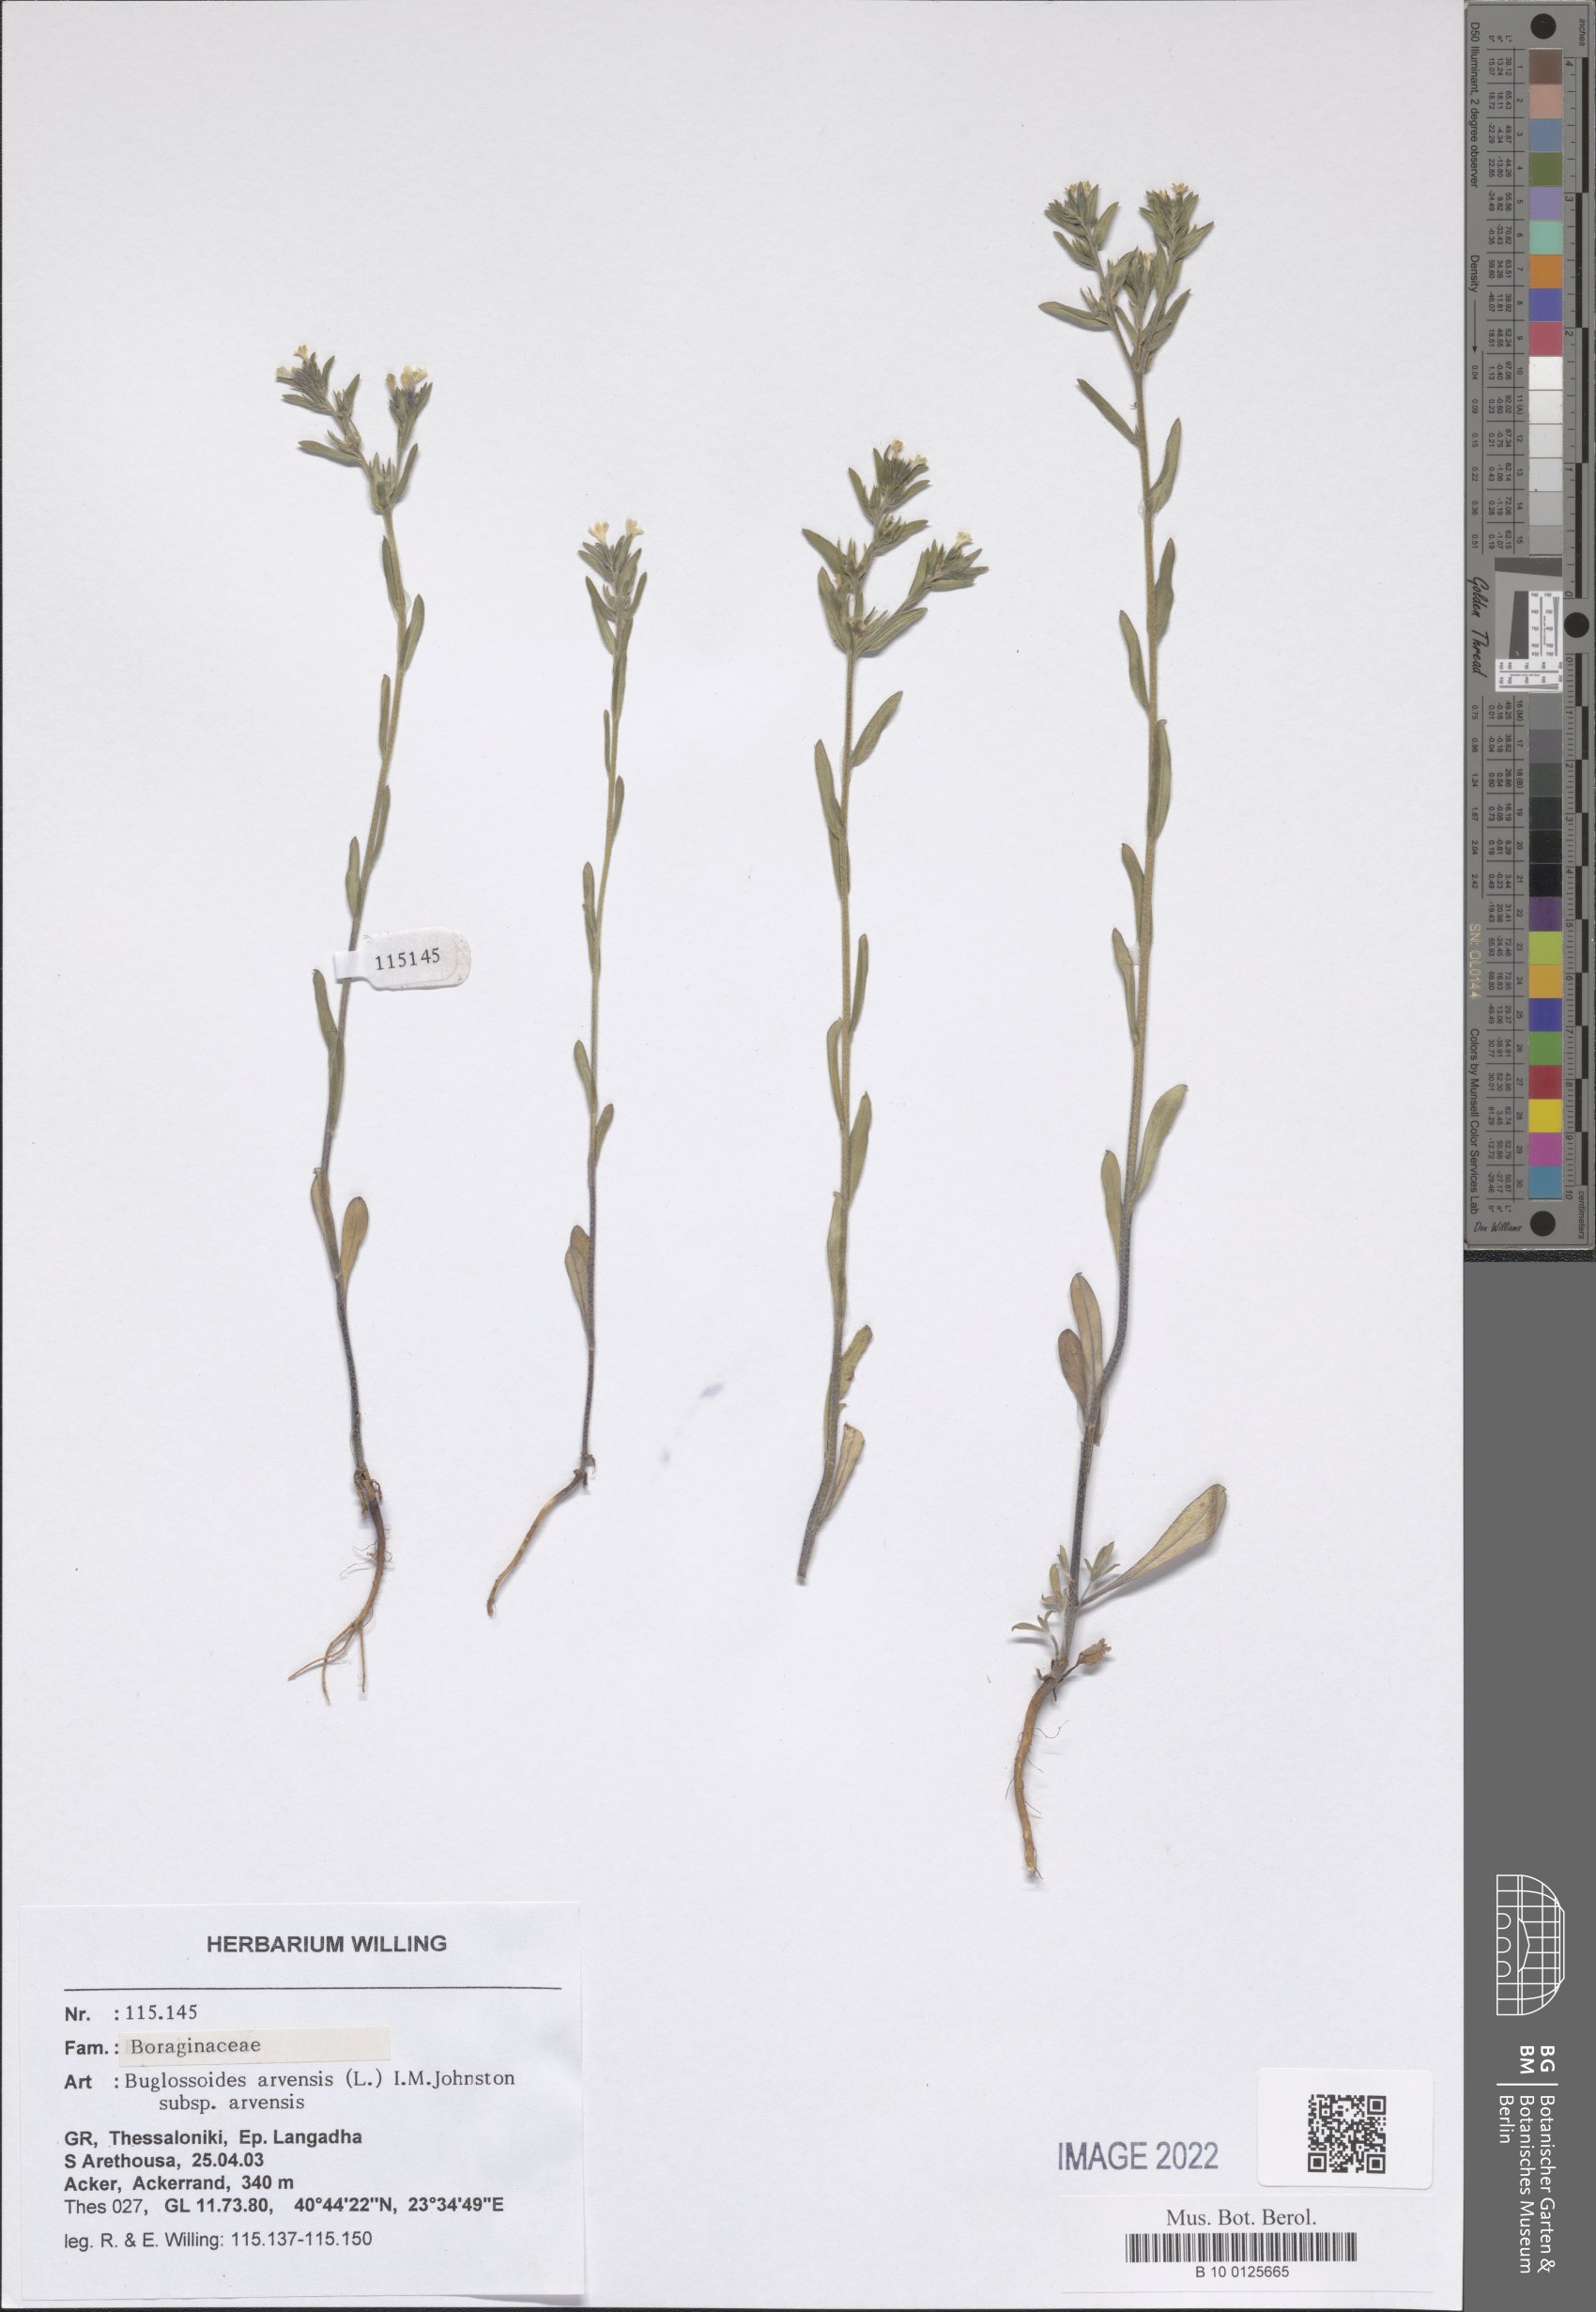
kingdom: Plantae
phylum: Tracheophyta
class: Magnoliopsida
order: Boraginales
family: Boraginaceae
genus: Buglossoides
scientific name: Buglossoides arvensis
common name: Corn gromwell
